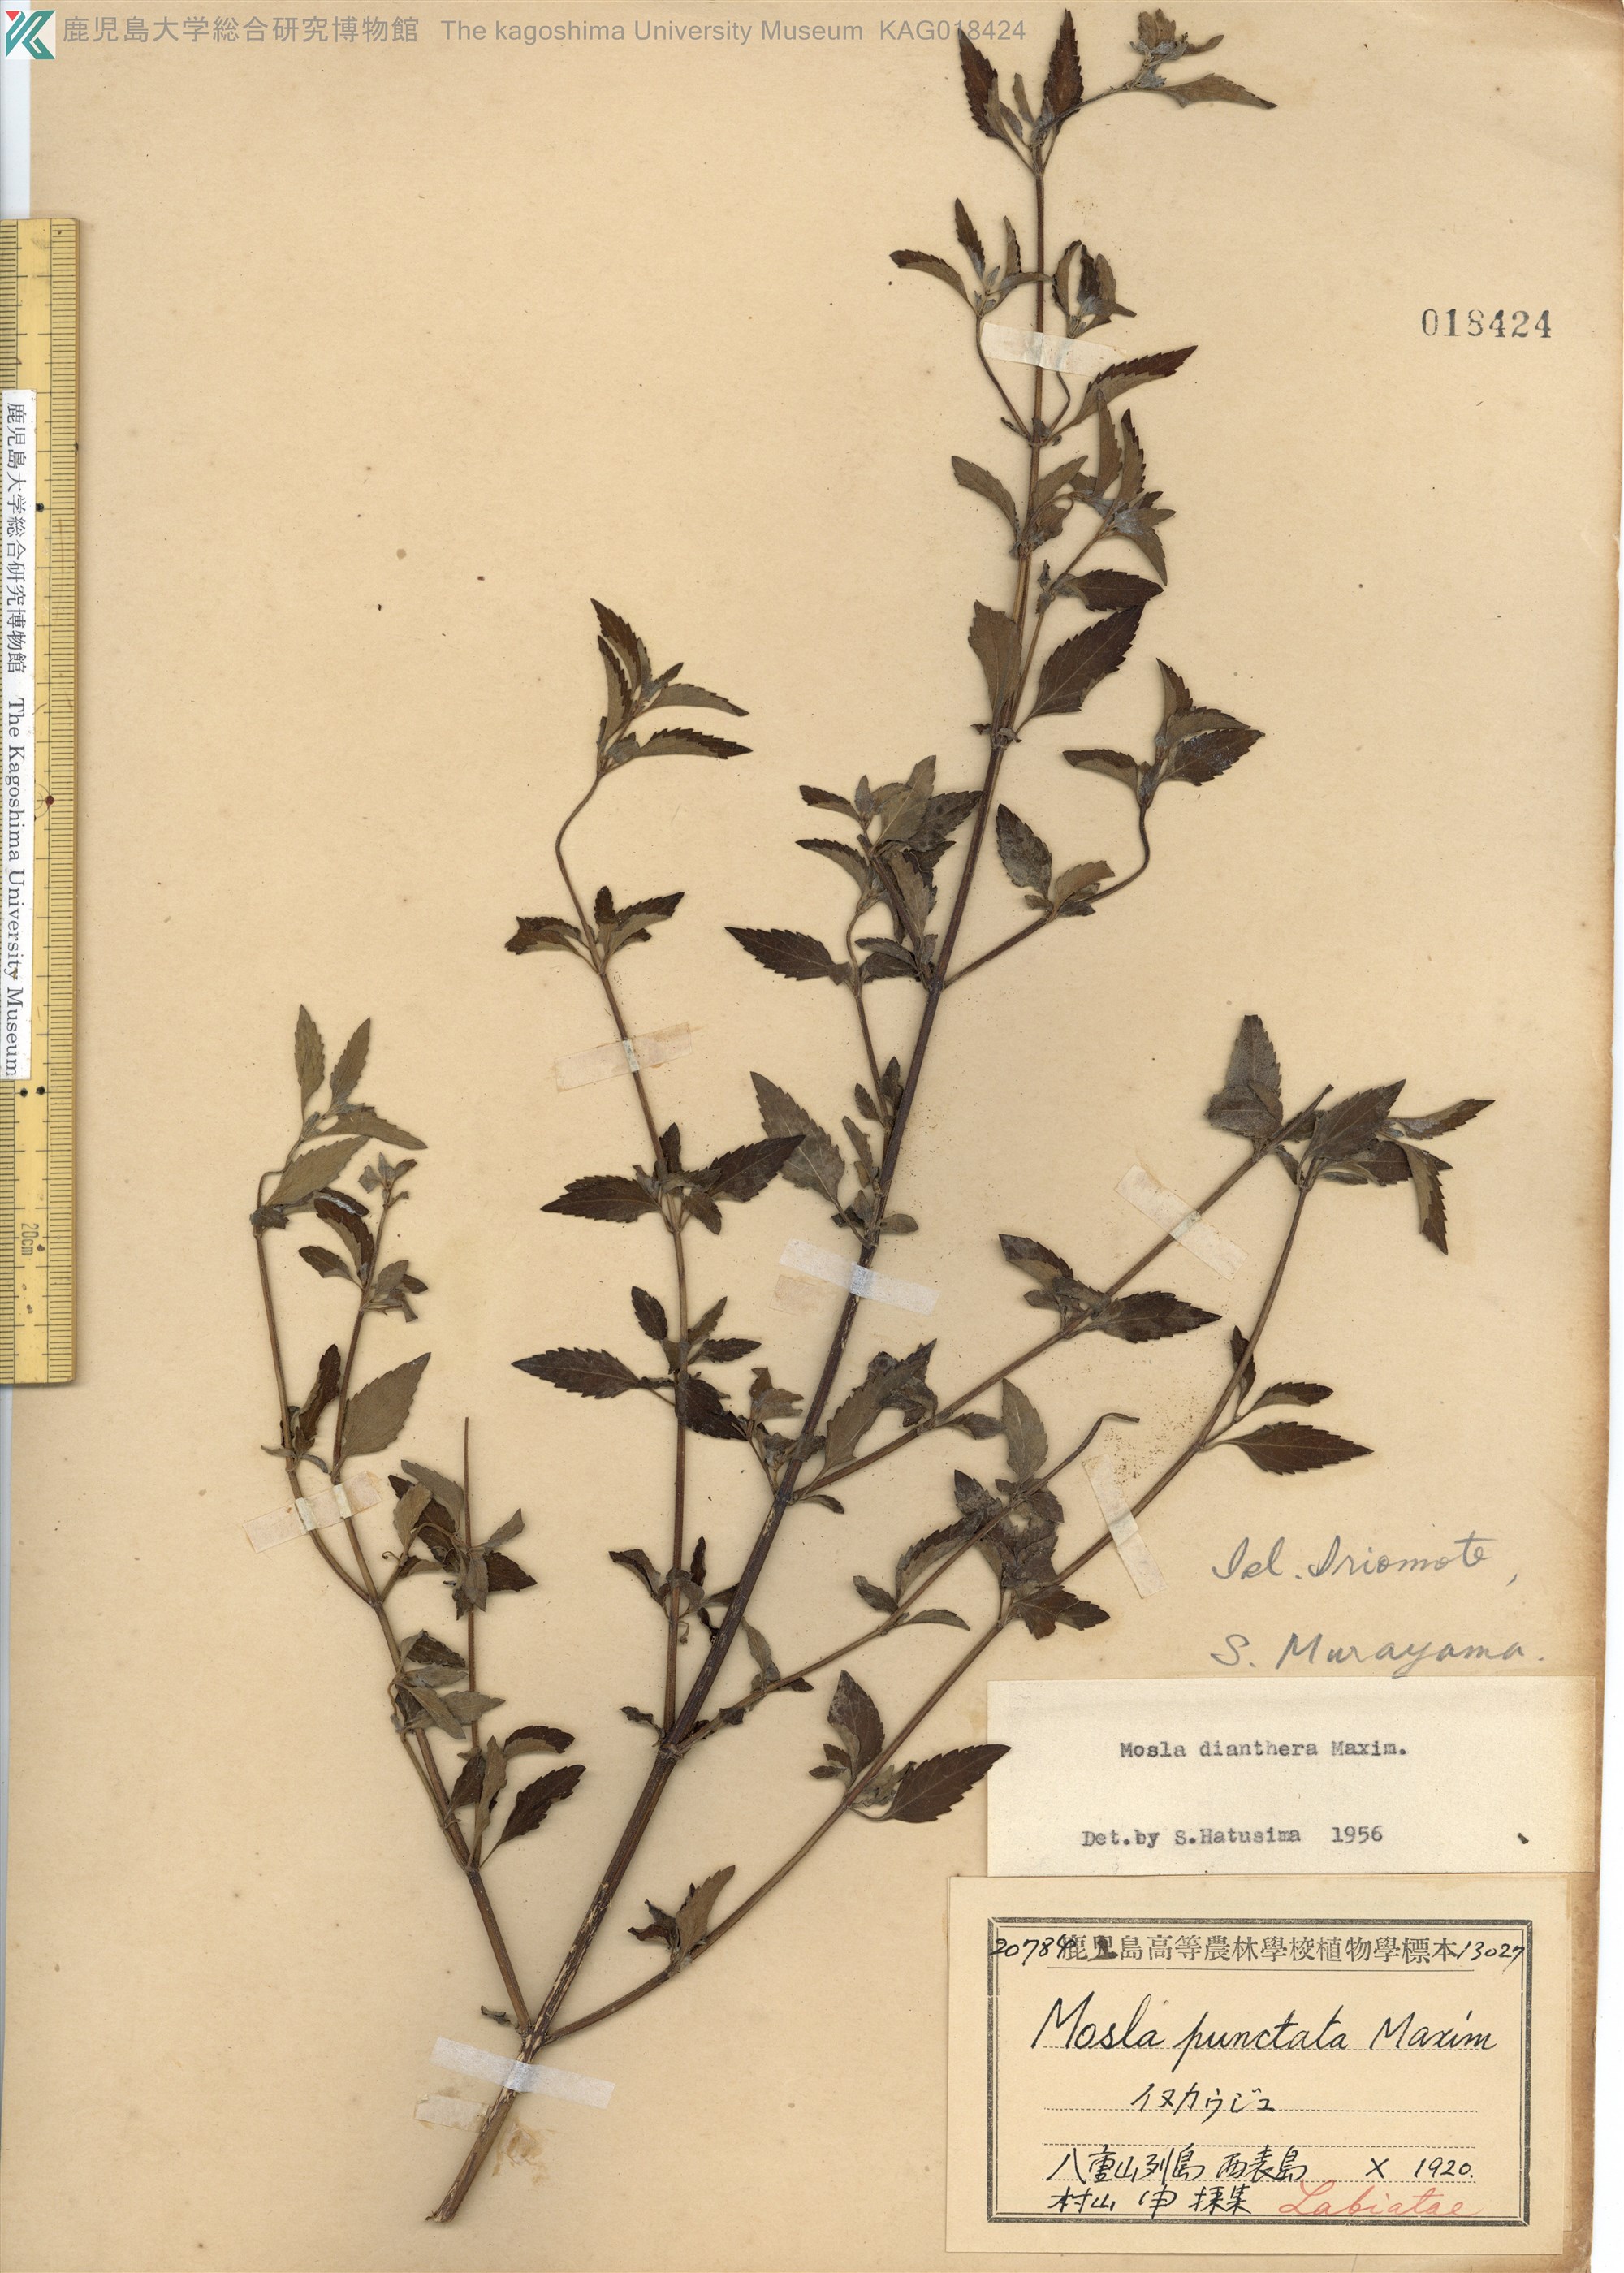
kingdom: Plantae
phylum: Tracheophyta
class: Magnoliopsida
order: Lamiales
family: Lamiaceae
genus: Mosla
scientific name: Mosla dianthera
